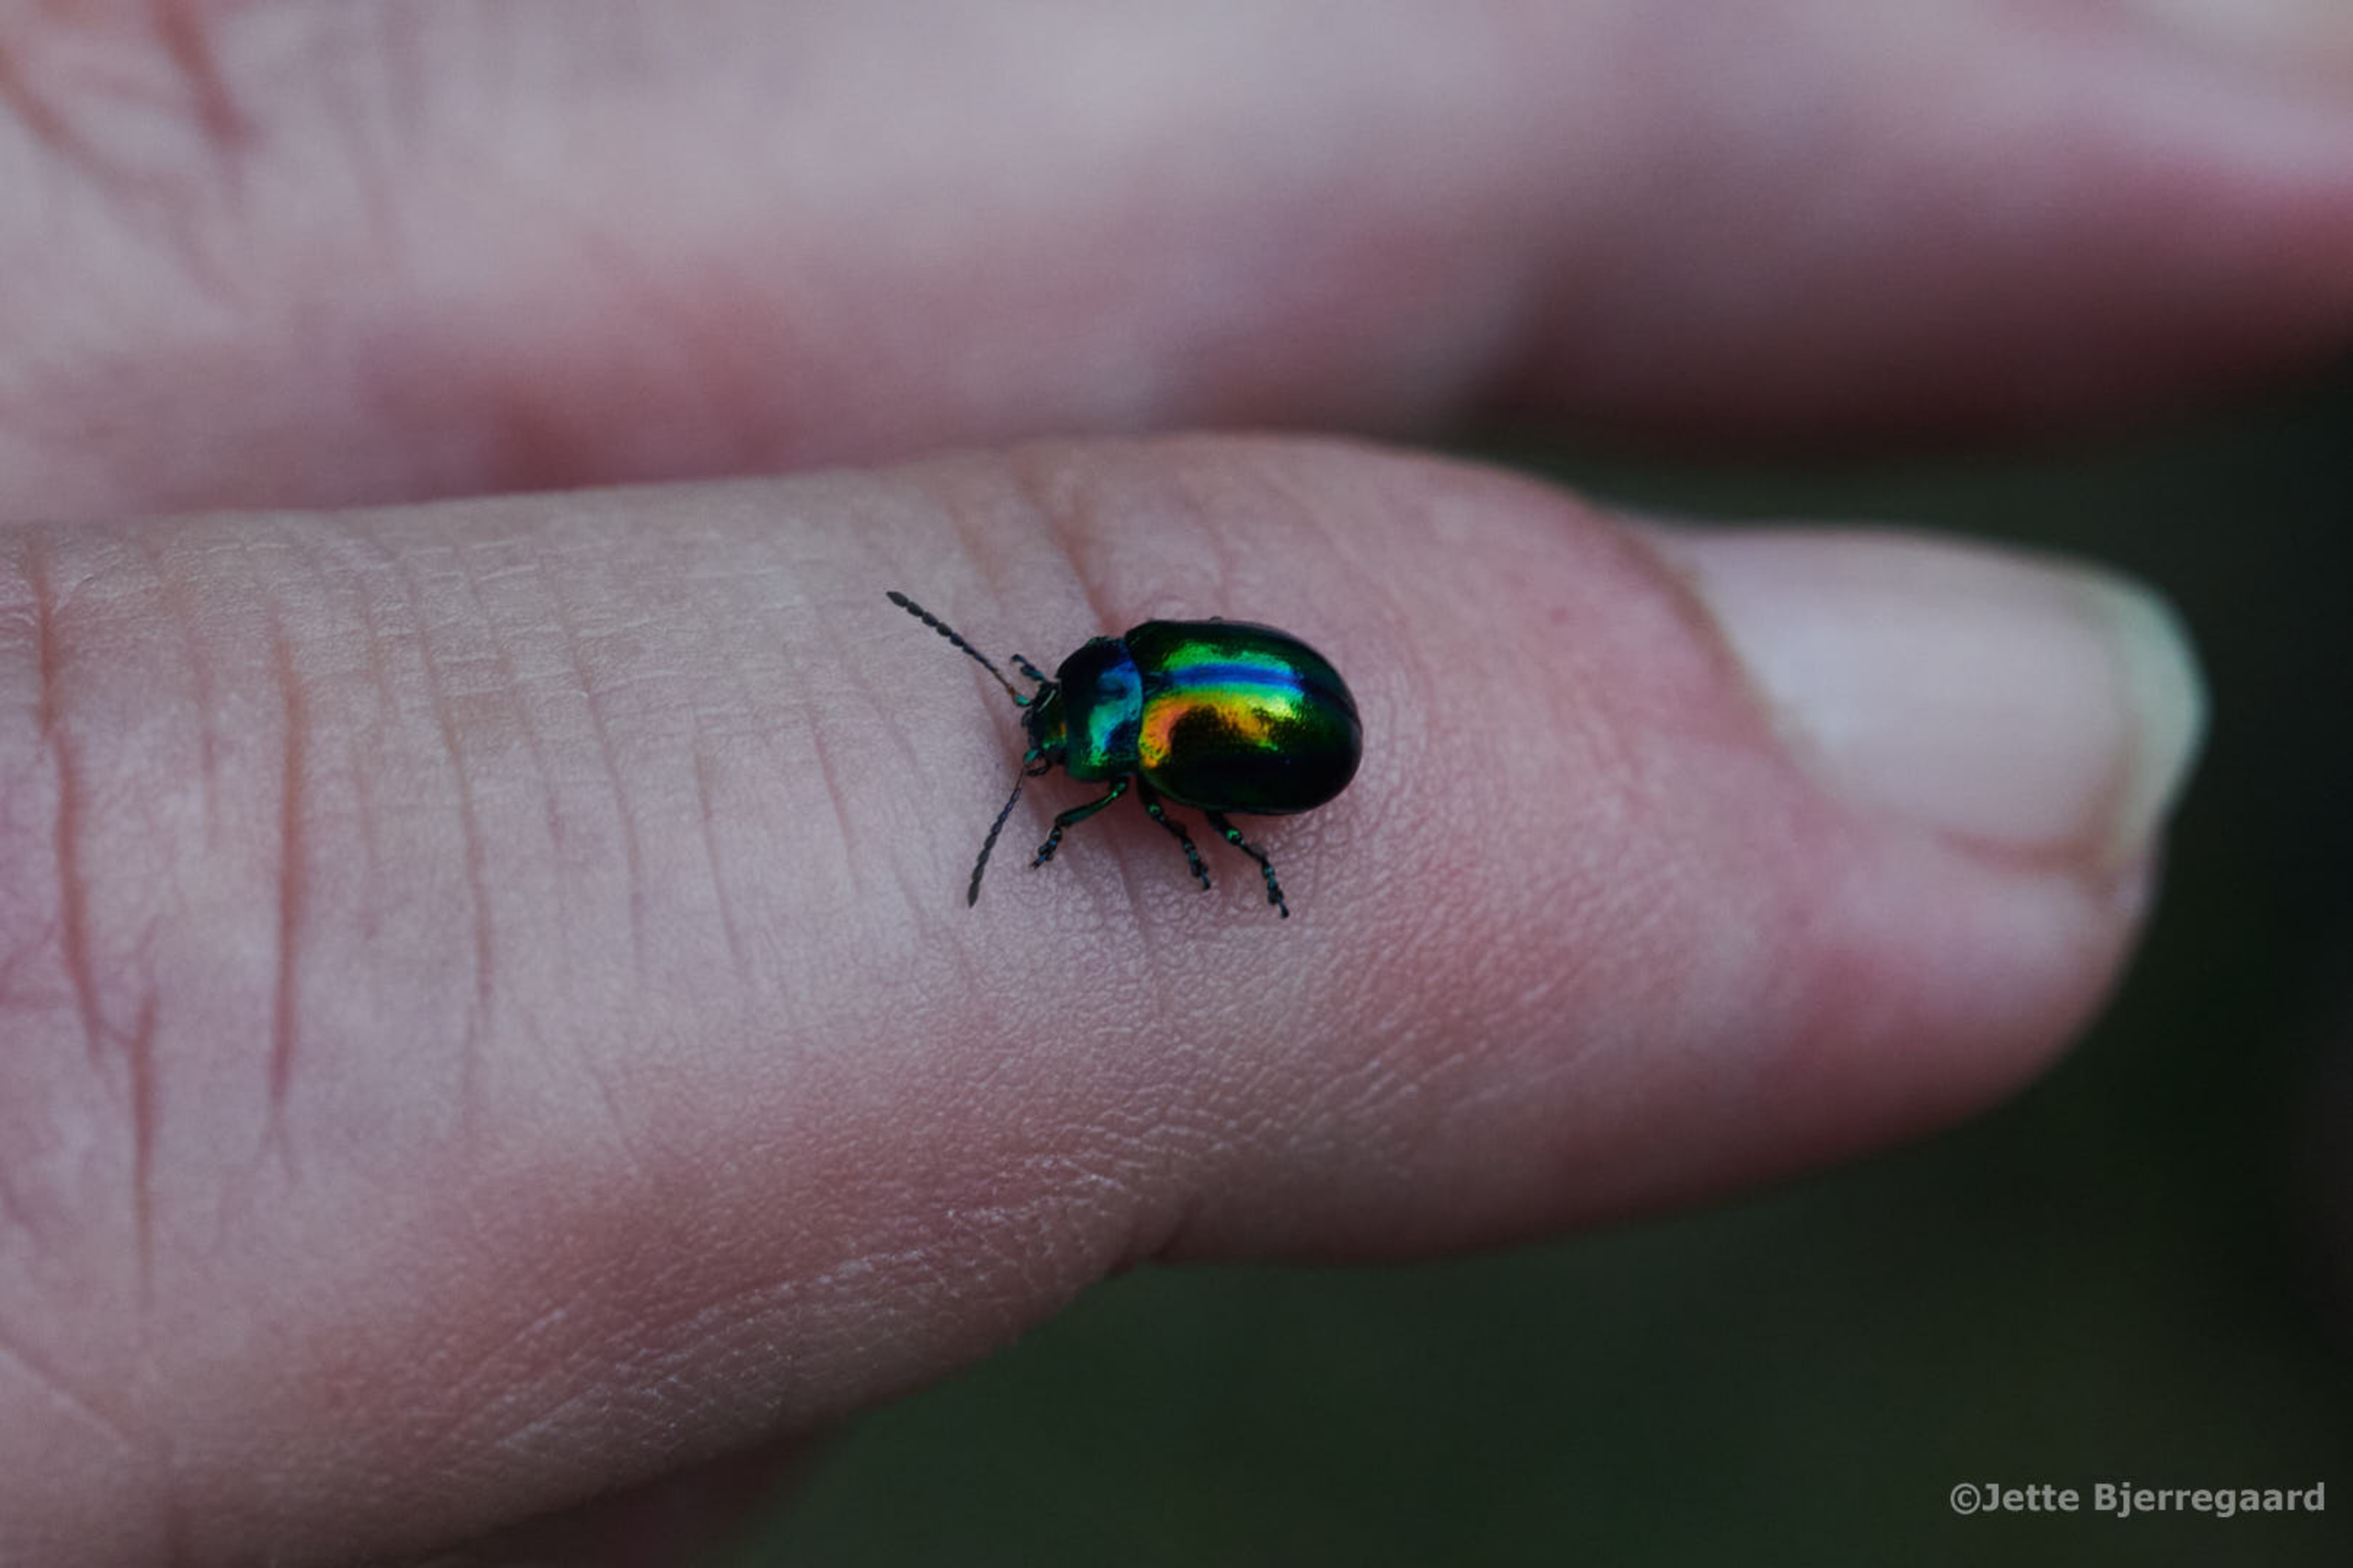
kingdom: Animalia
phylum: Arthropoda
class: Insecta
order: Coleoptera
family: Chrysomelidae
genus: Chrysolina
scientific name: Chrysolina fastuosa
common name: Tvetandbladbille
